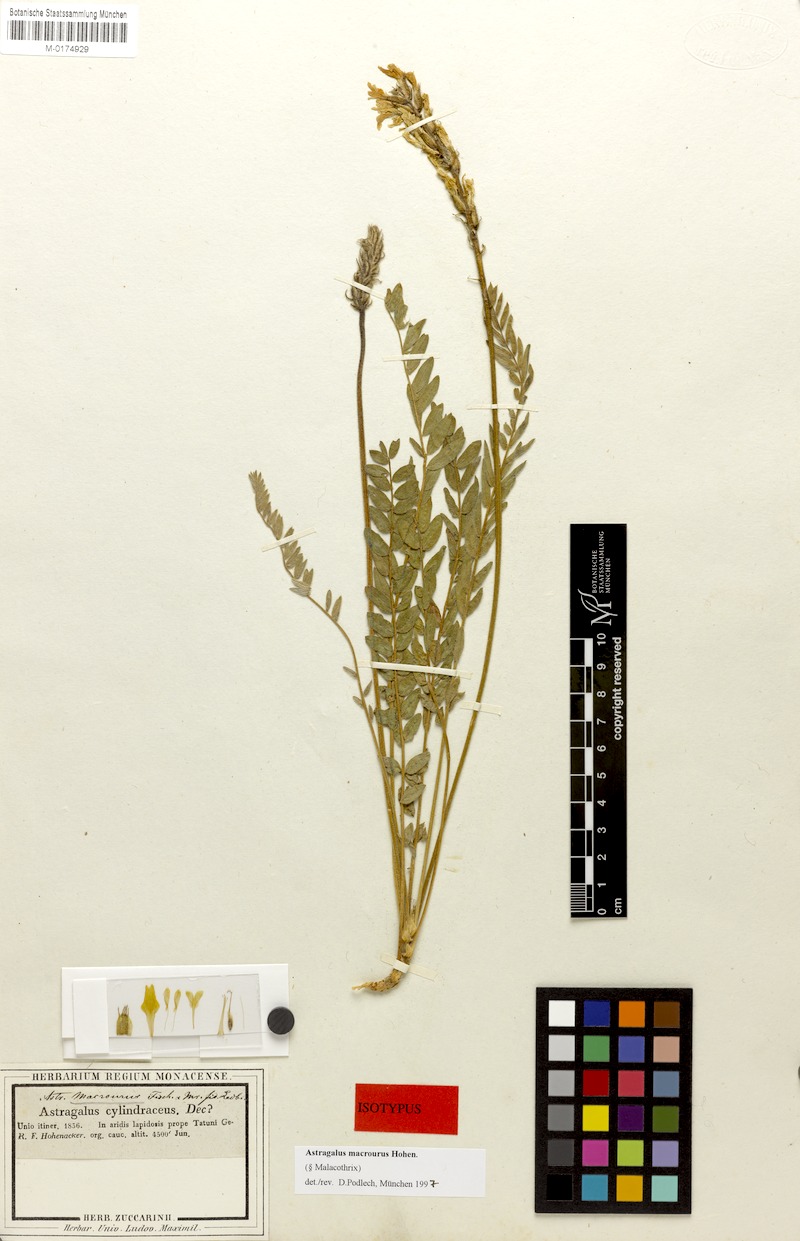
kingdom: Plantae
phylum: Tracheophyta
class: Magnoliopsida
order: Fabales
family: Fabaceae
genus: Astragalus
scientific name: Astragalus macrourus
